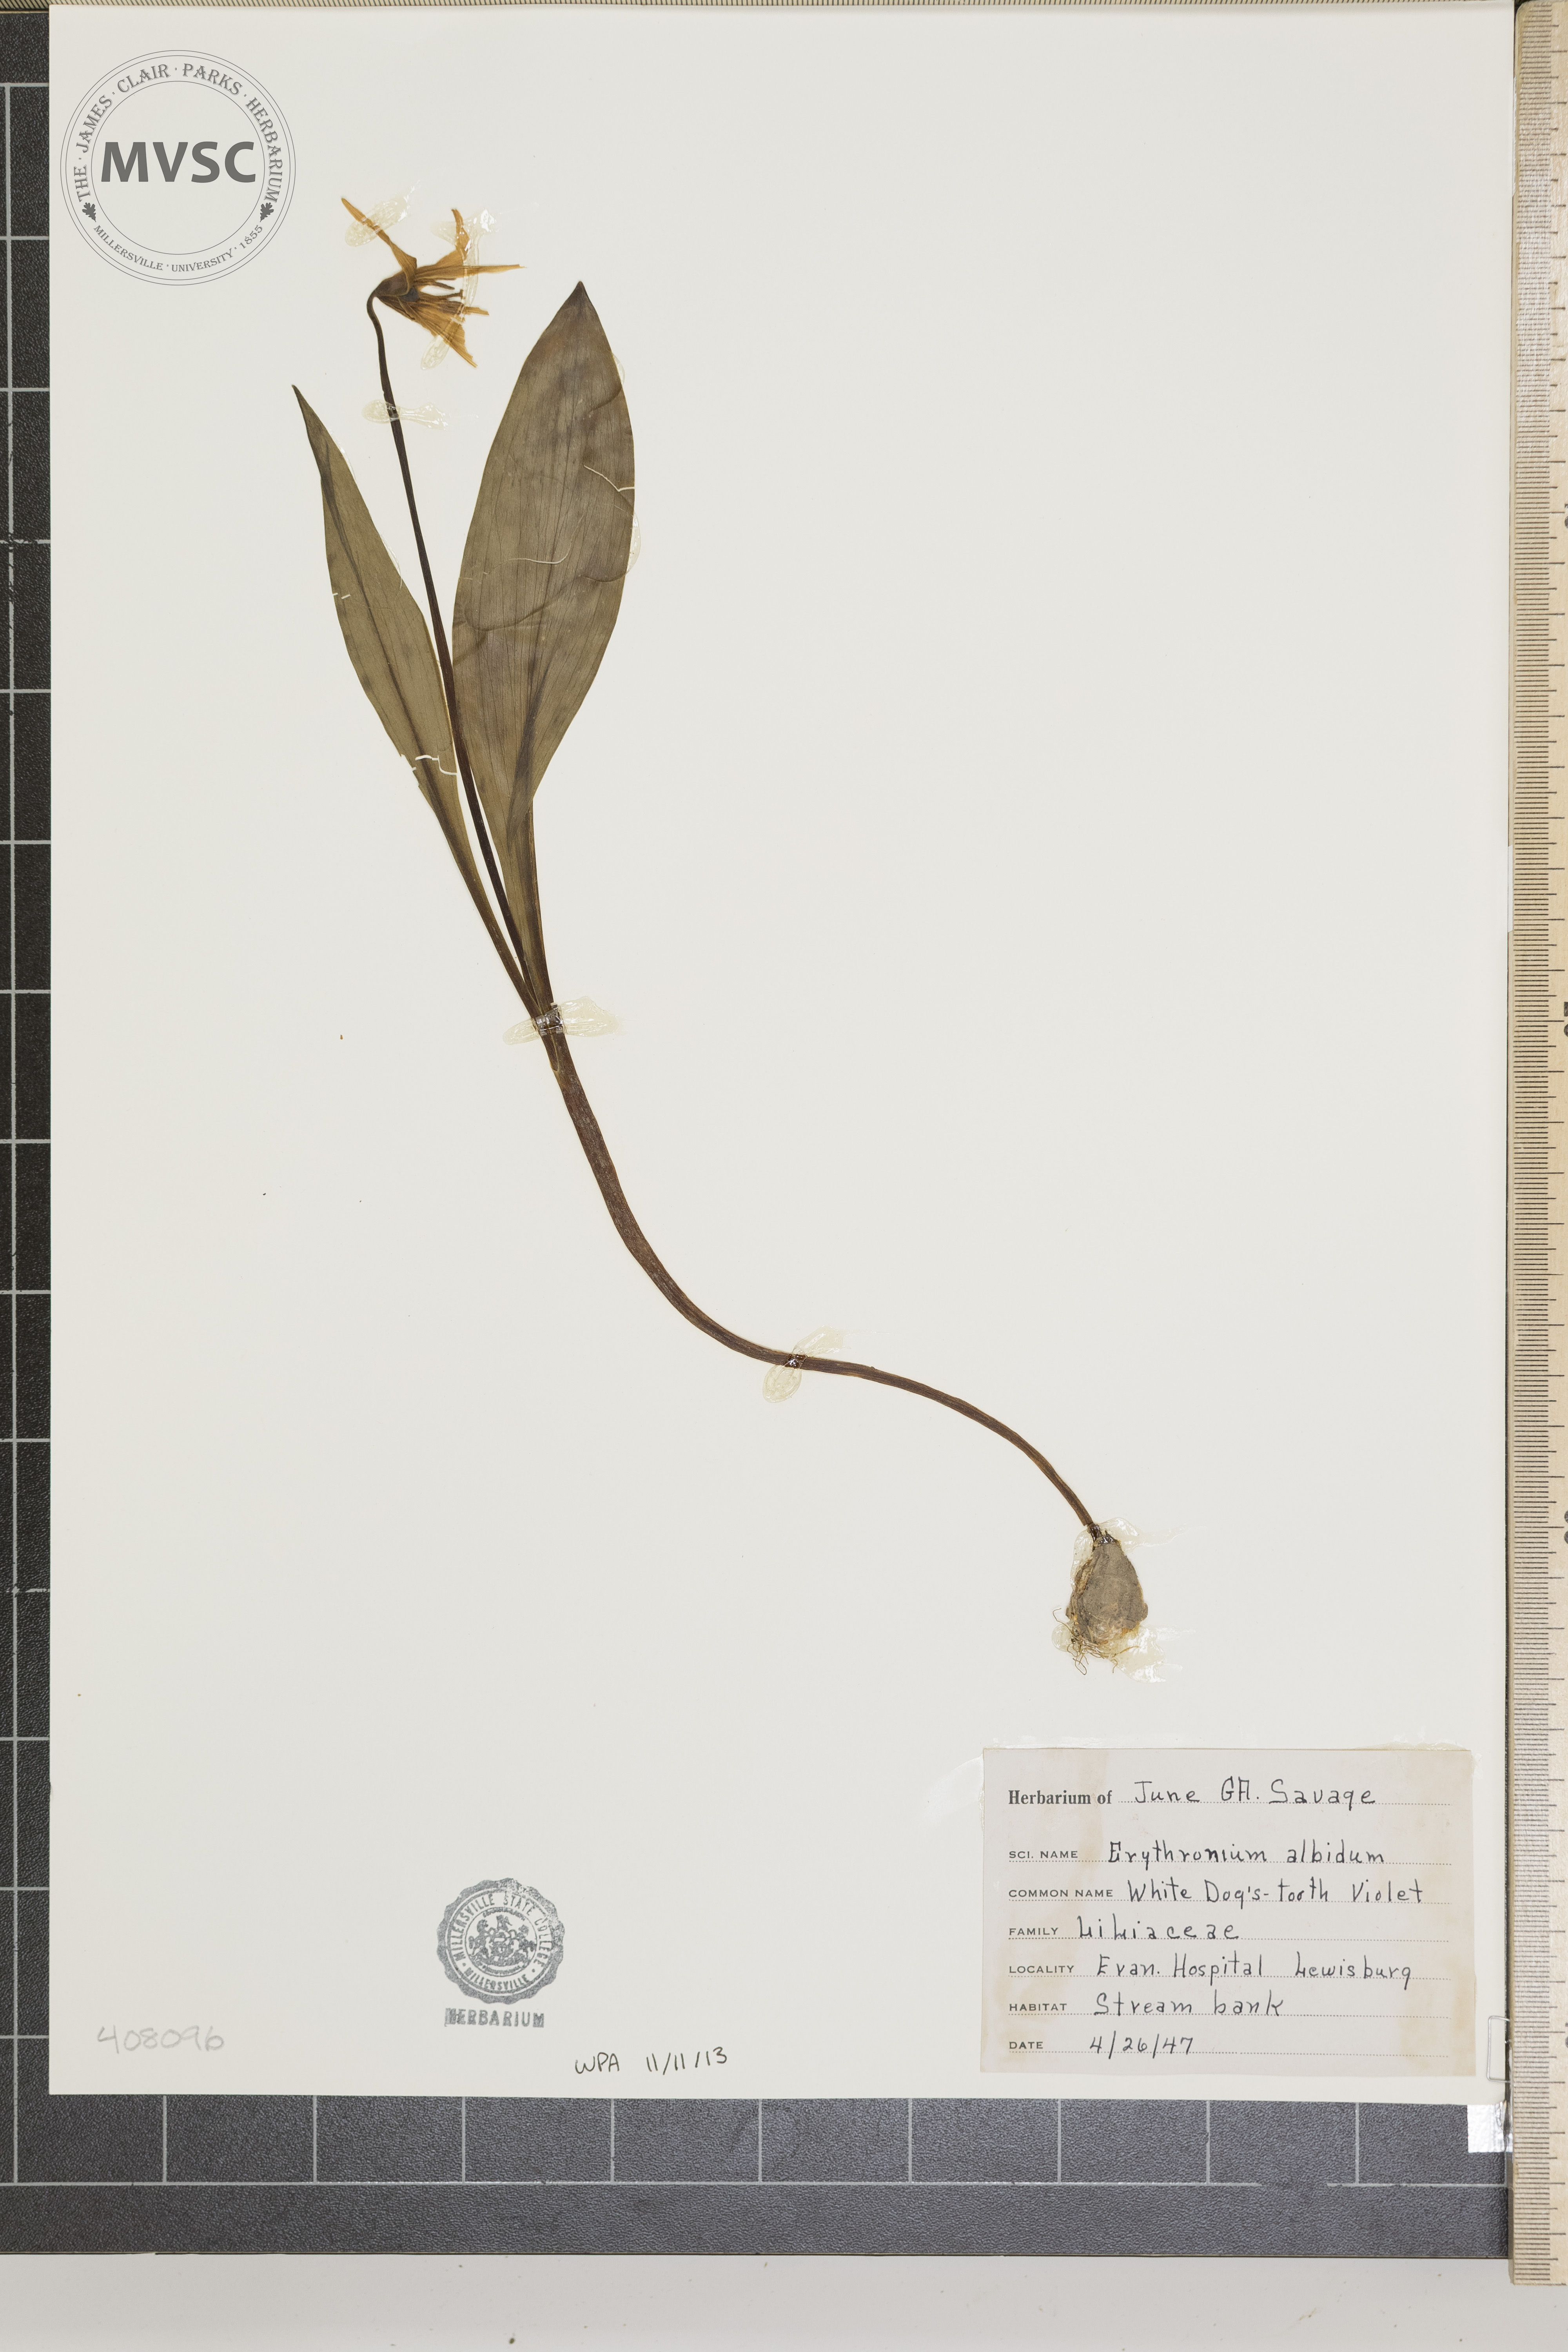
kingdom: Plantae
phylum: Tracheophyta
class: Liliopsida
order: Liliales
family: Liliaceae
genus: Erythronium
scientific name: Erythronium albidum
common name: White trout-lily
